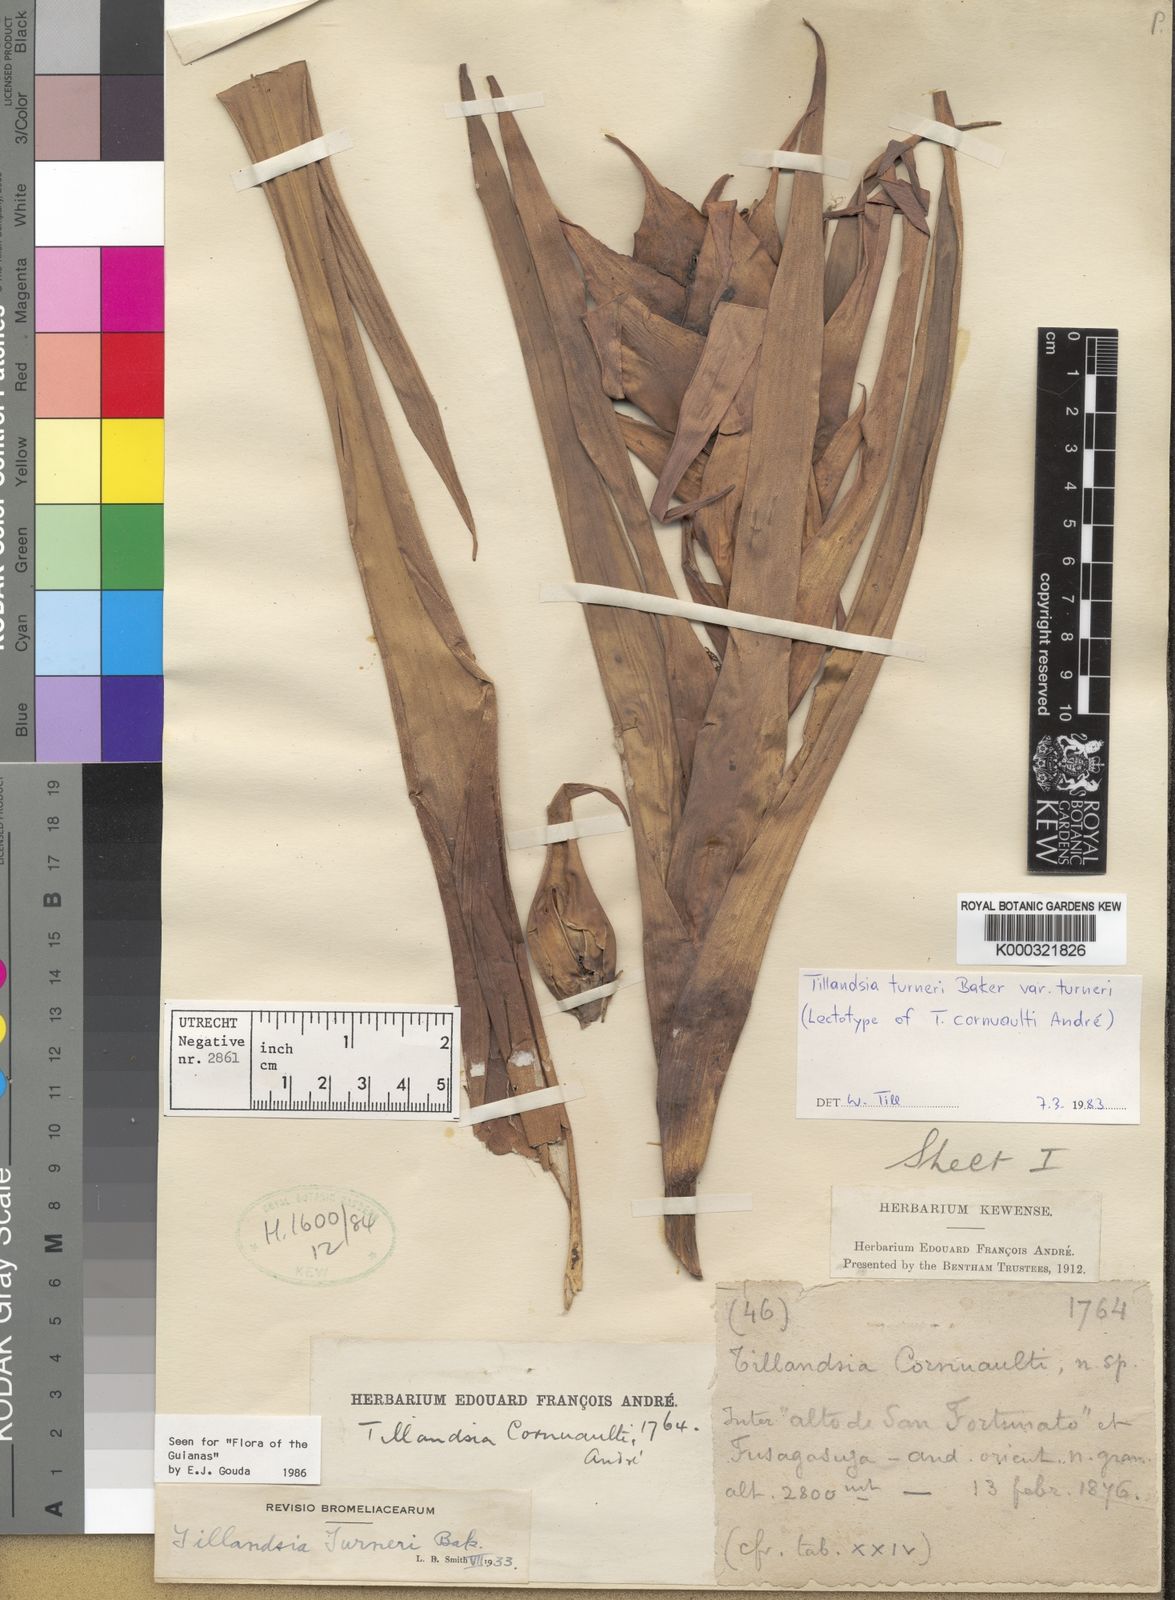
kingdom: Plantae
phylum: Tracheophyta
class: Liliopsida
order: Poales
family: Bromeliaceae
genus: Tillandsia
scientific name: Tillandsia turneri
